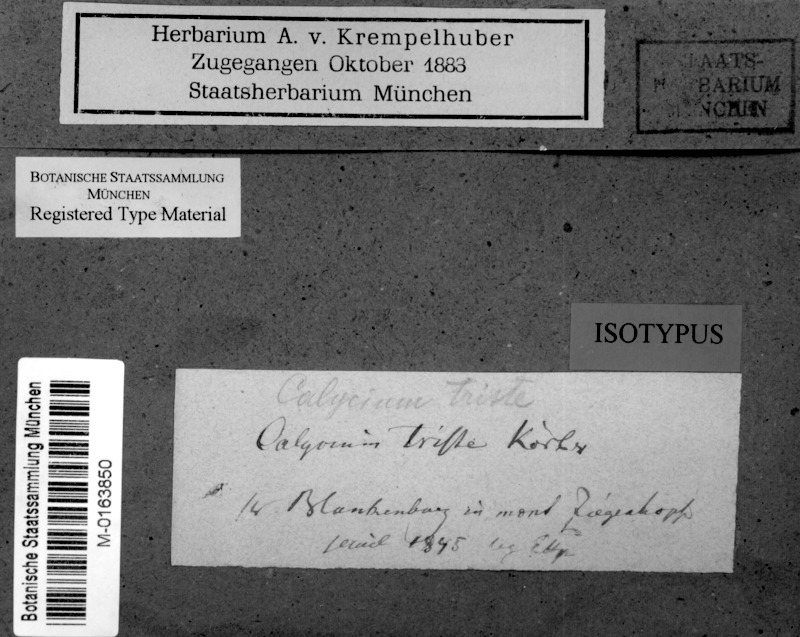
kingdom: Fungi
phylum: Ascomycota
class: Eurotiomycetes
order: Mycocaliciales
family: Mycocaliciaceae
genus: Chaenothecopsis
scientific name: Chaenothecopsis
